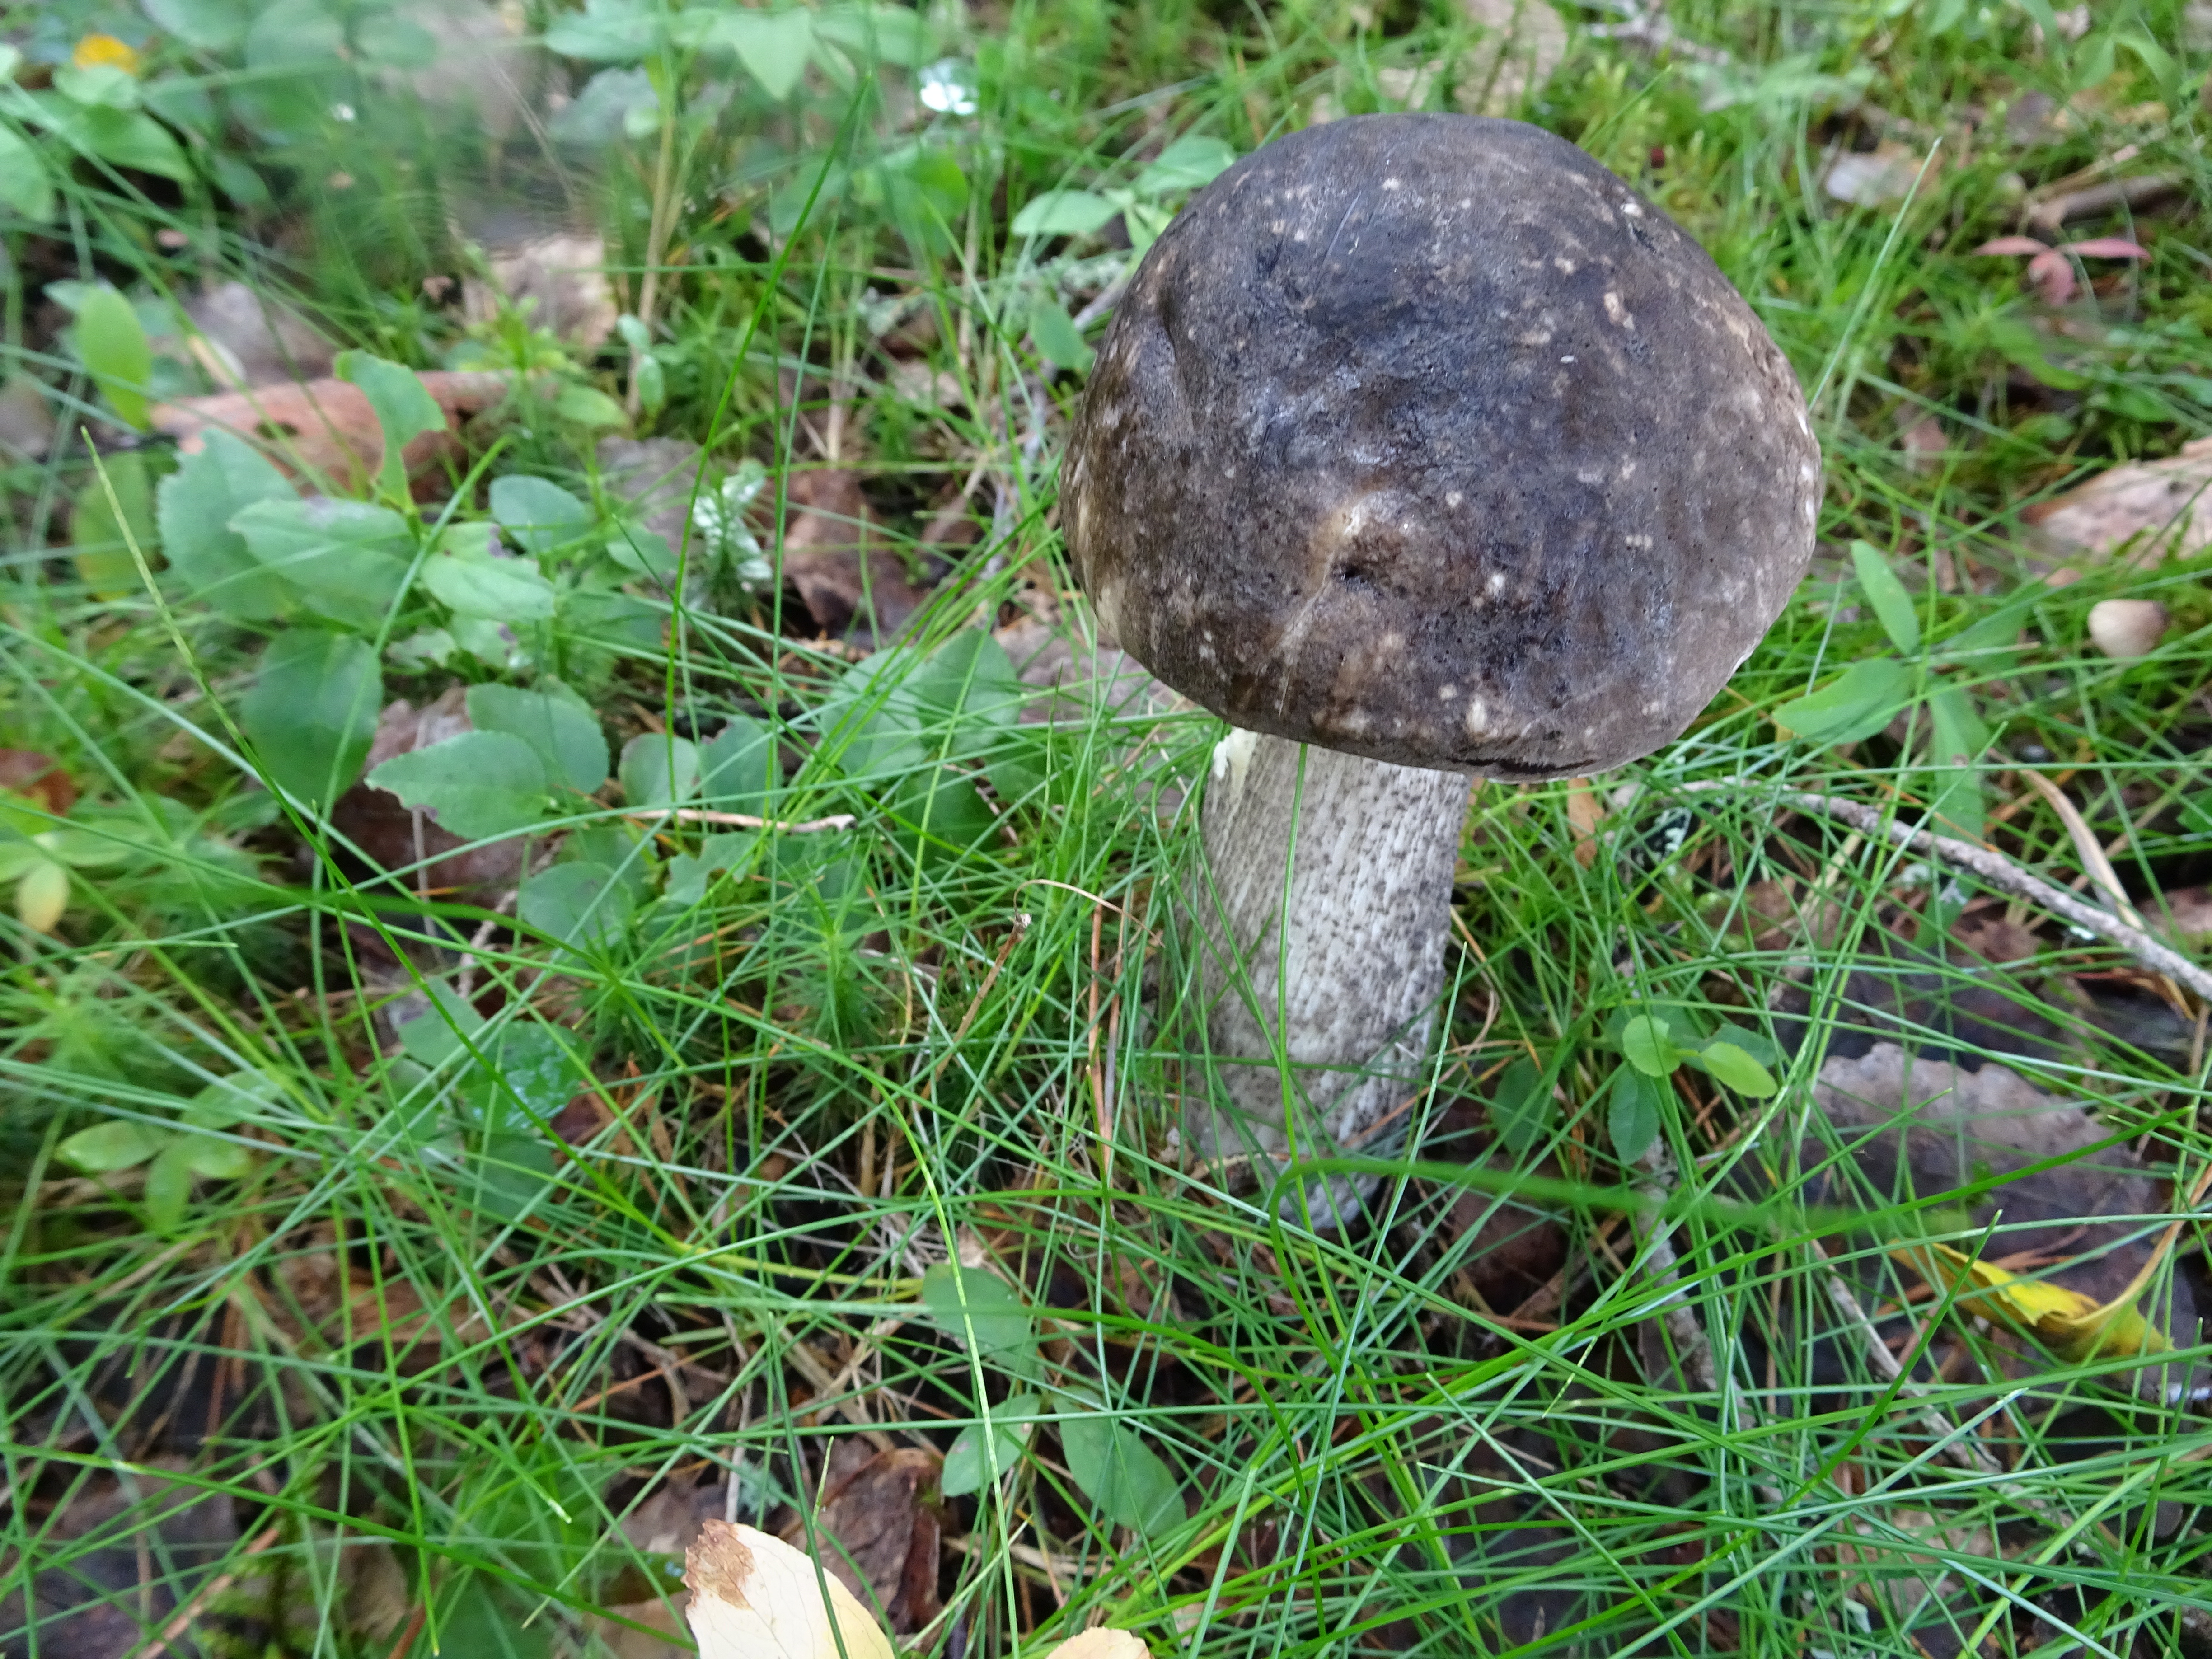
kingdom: Fungi
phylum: Basidiomycota
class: Agaricomycetes
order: Boletales
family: Boletaceae
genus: Leccinum
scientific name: Leccinum variicolor
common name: Mottled bolete
